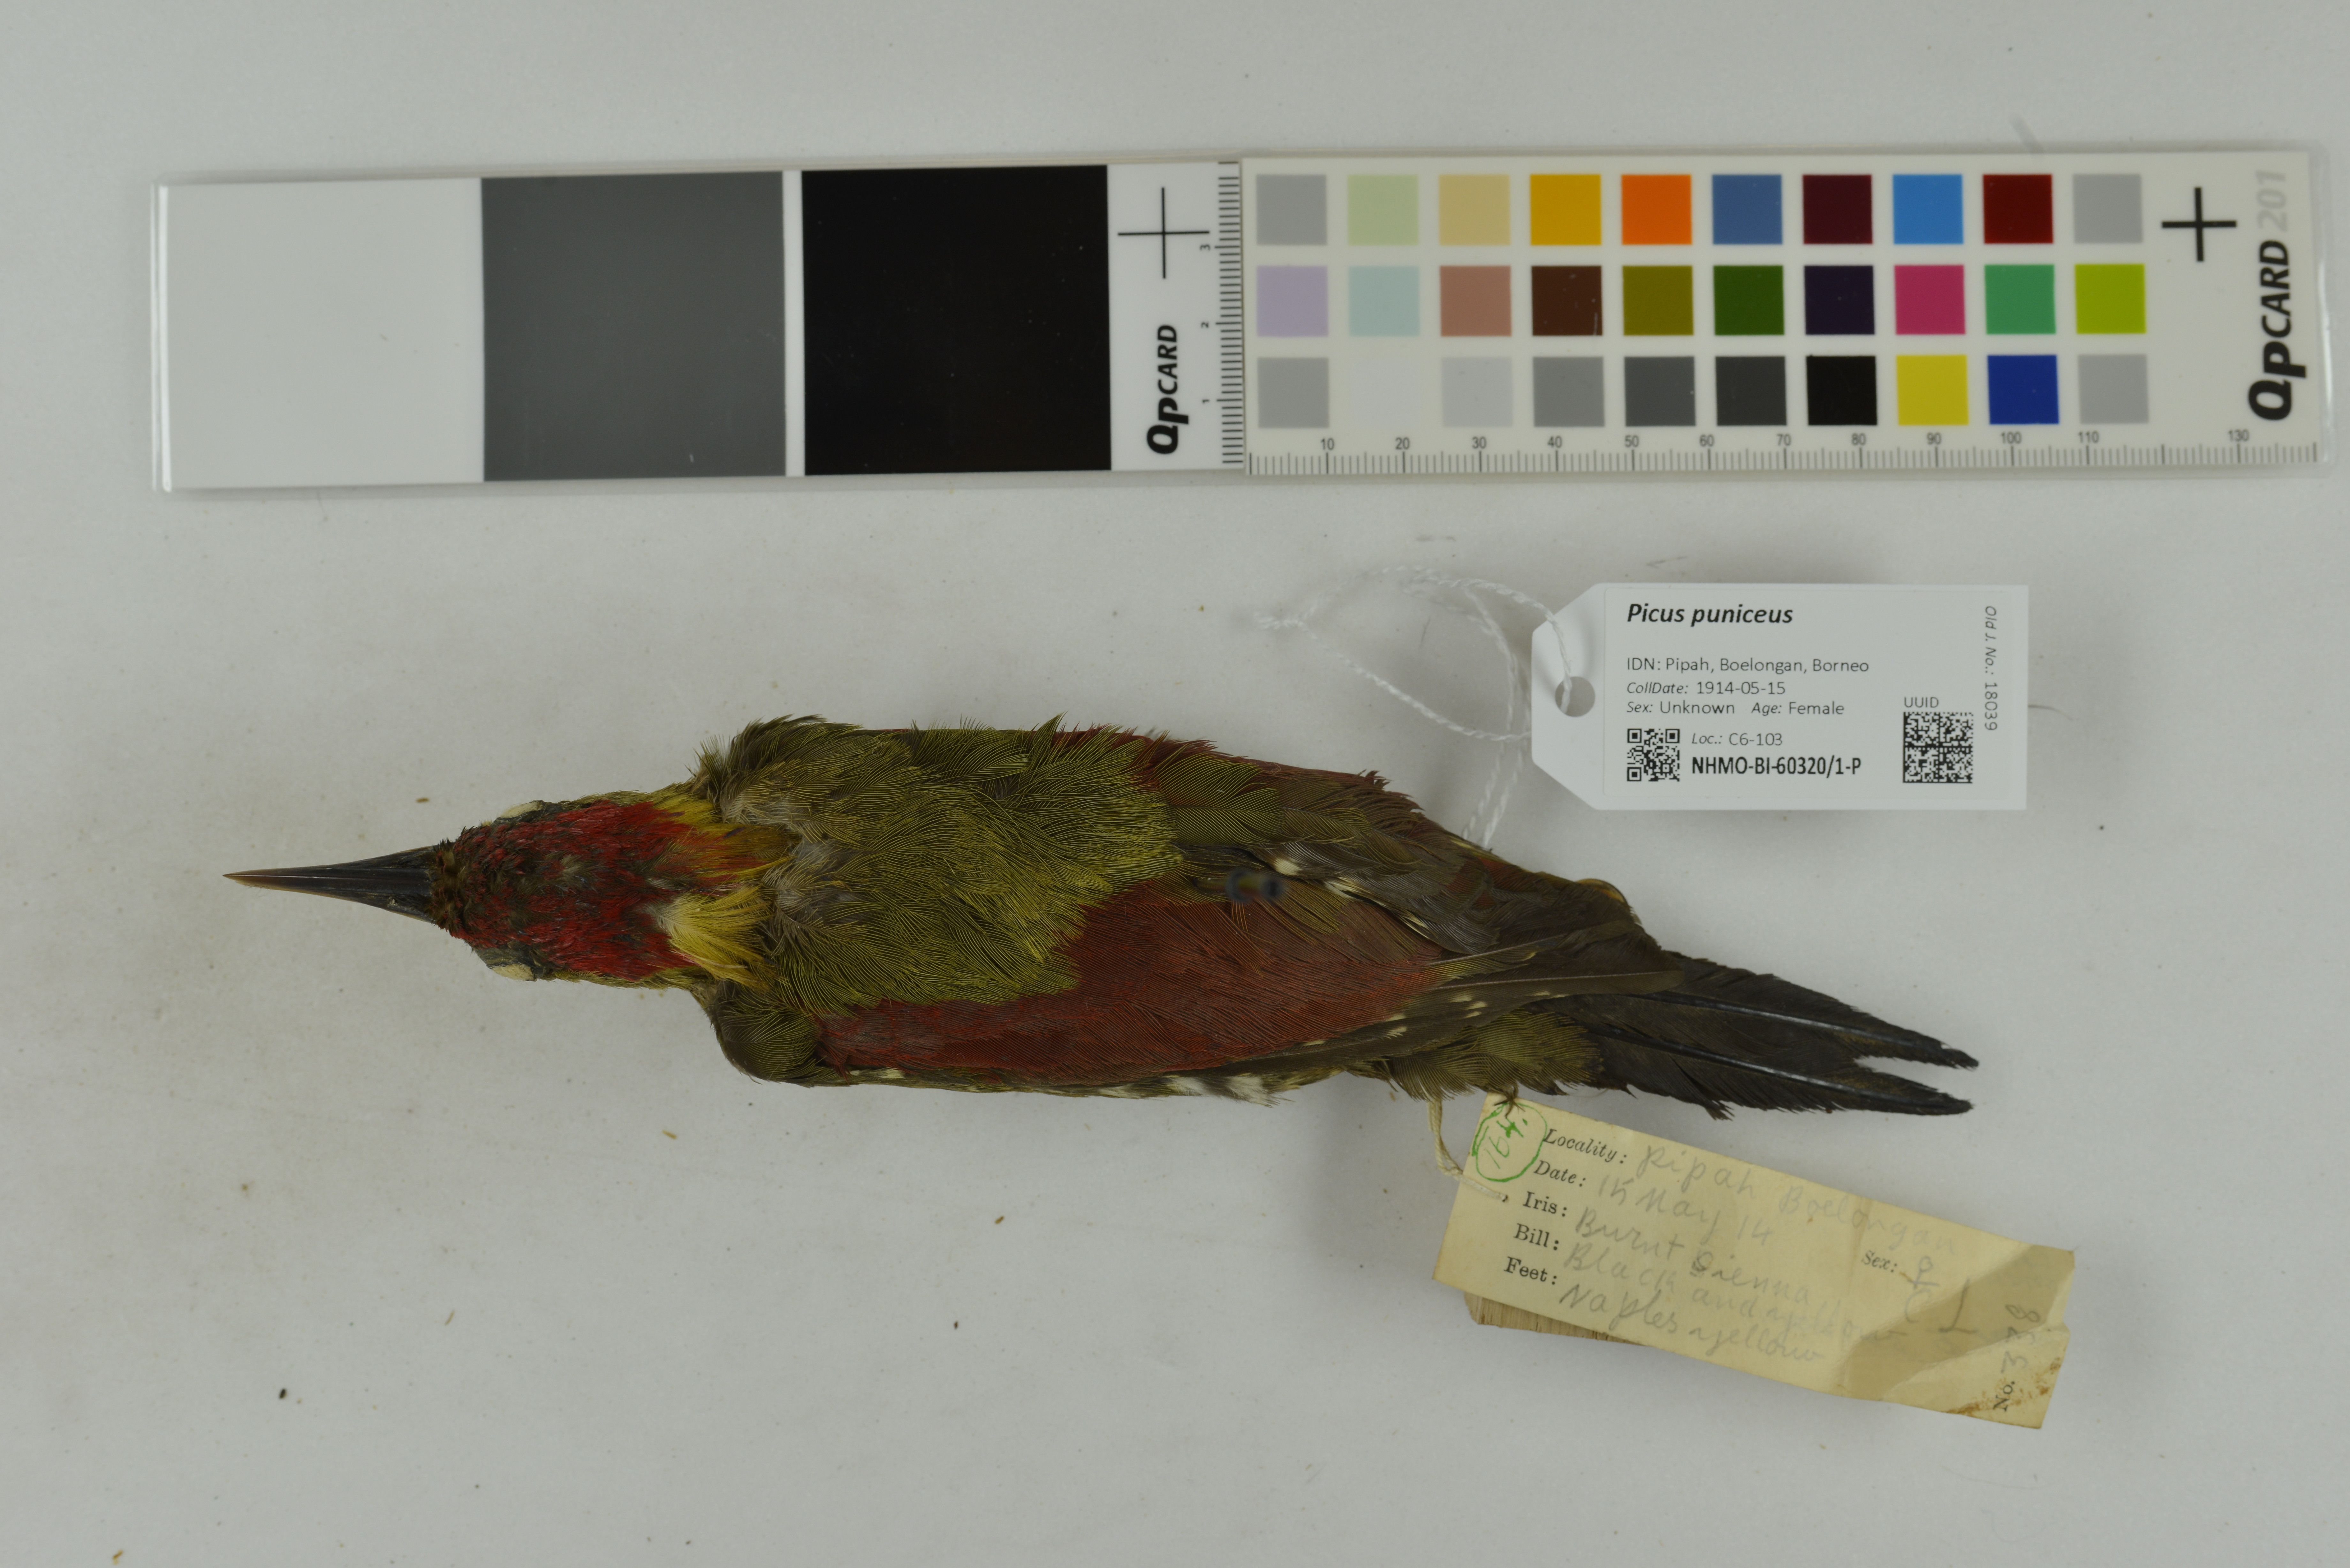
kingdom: Animalia
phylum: Chordata
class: Aves
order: Piciformes
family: Picidae
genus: Picus
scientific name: Picus puniceus
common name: Crimson-winged woodpecker
